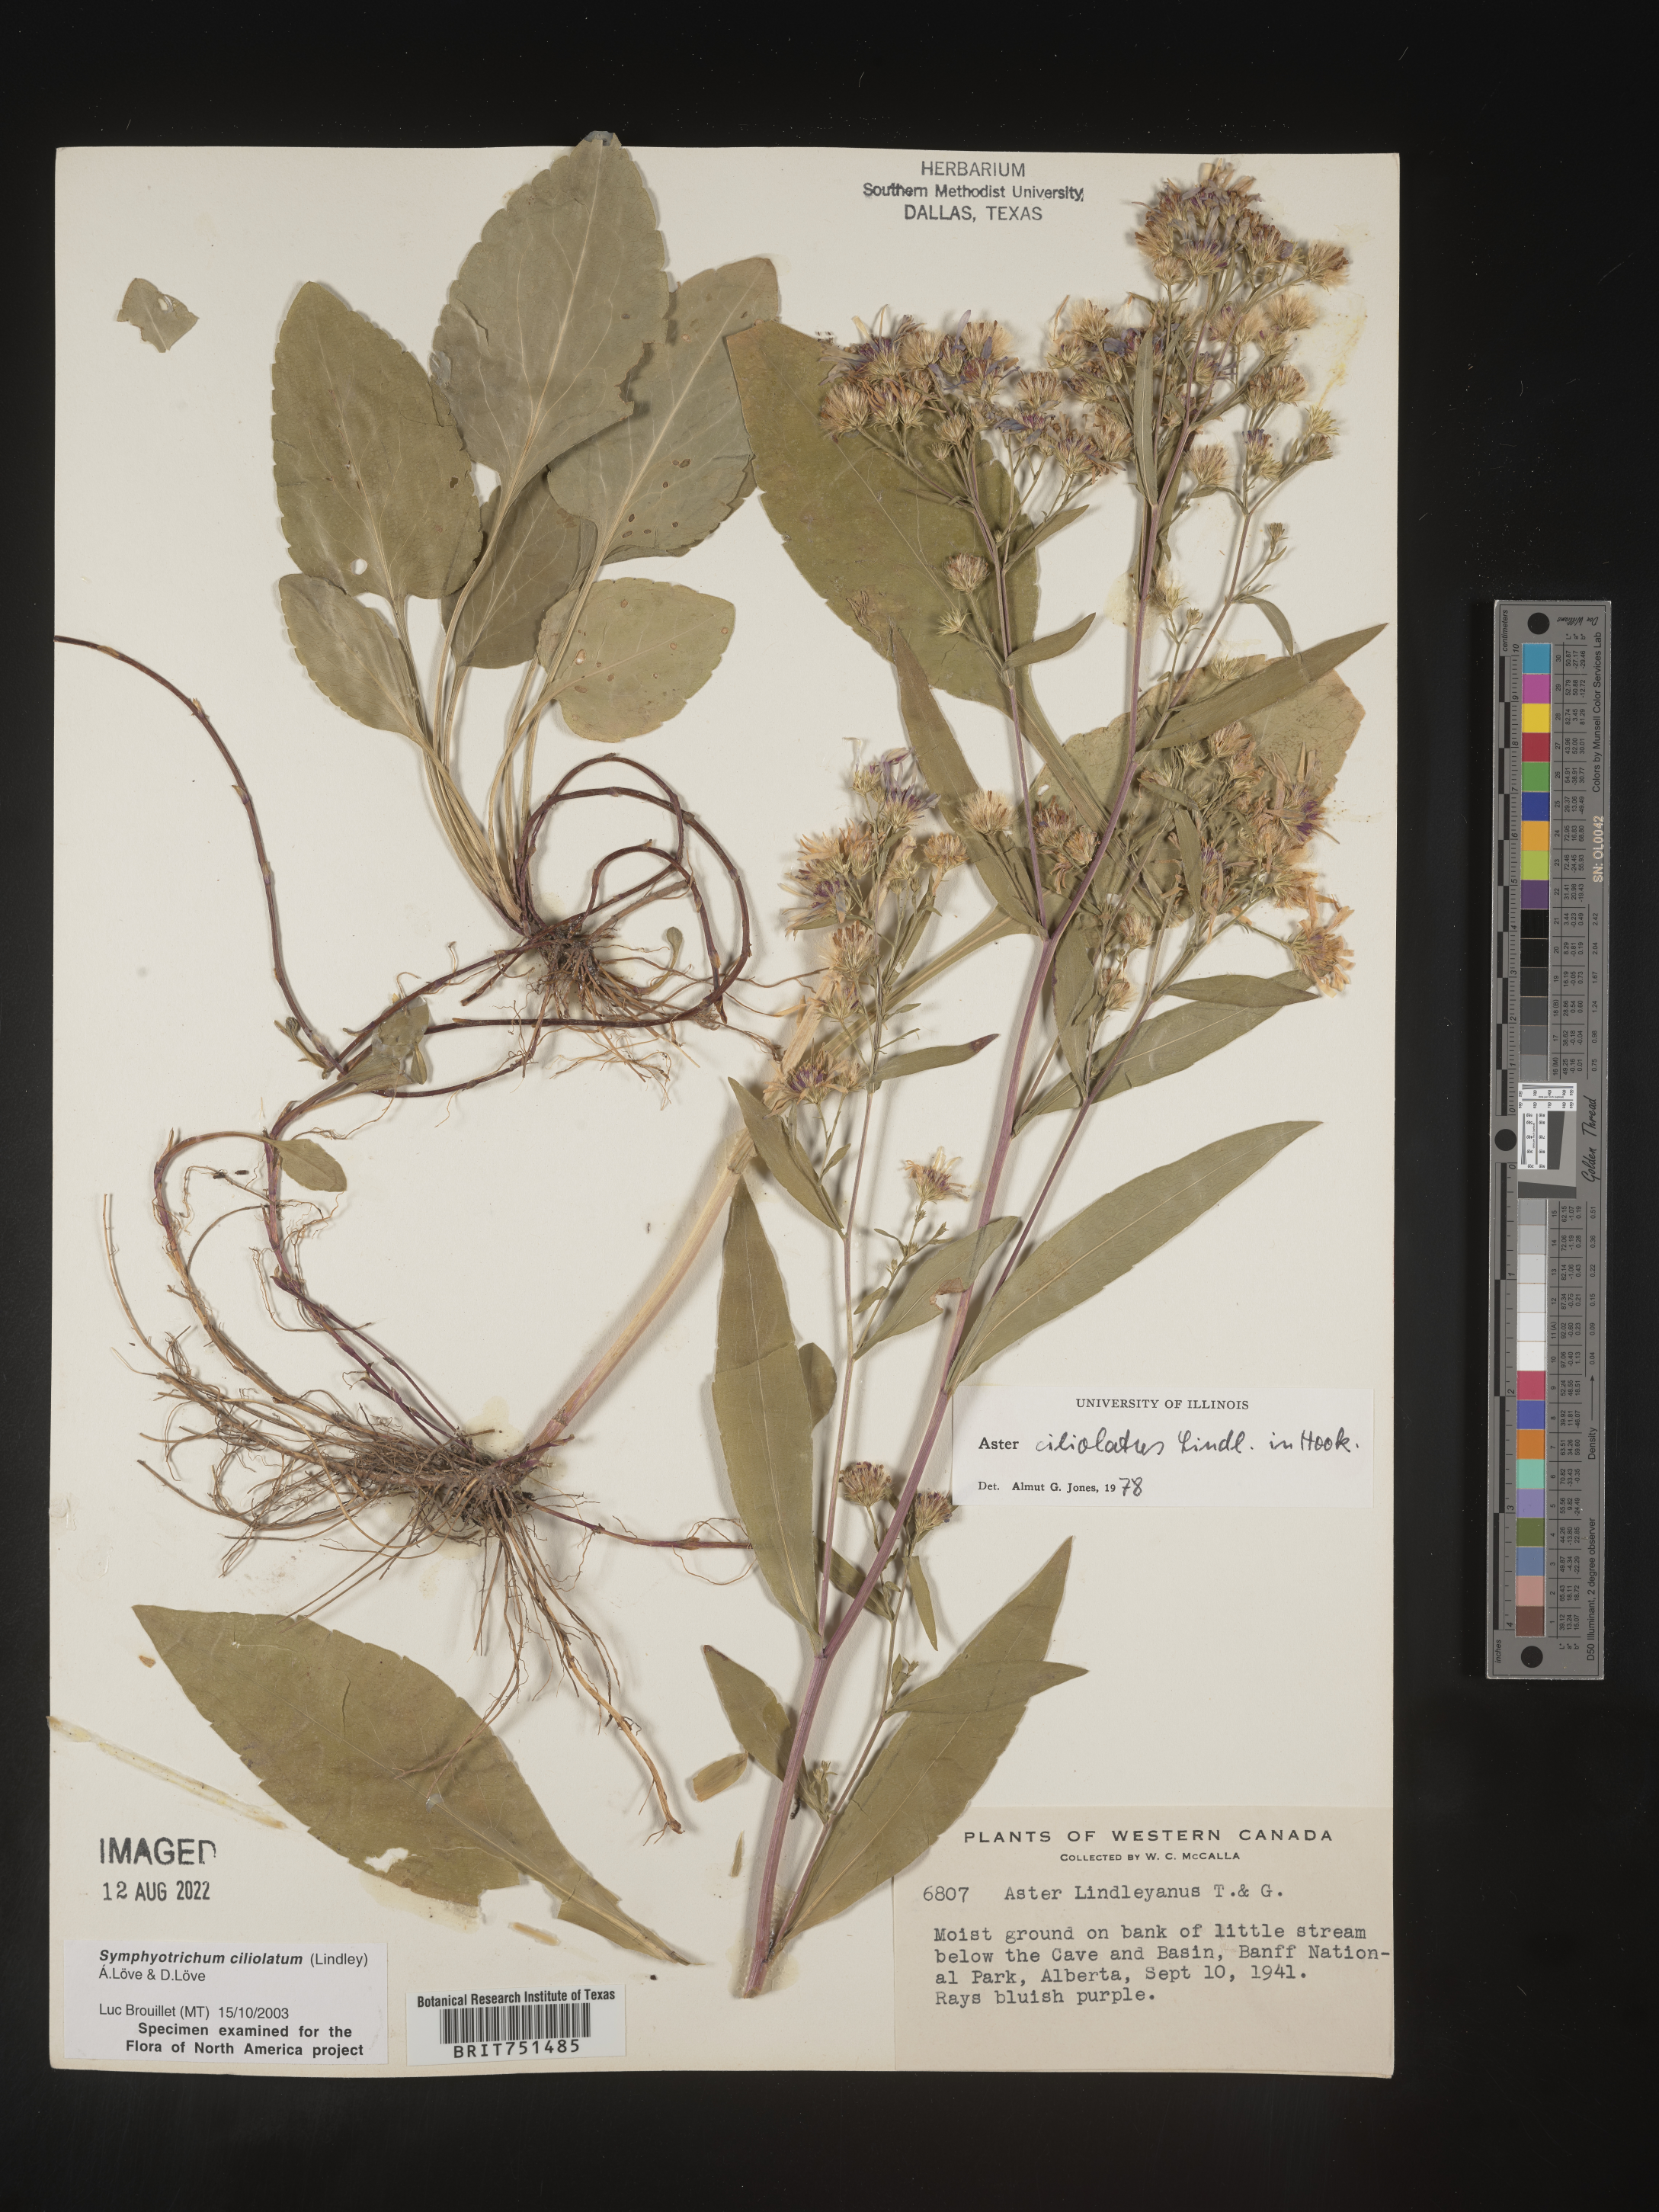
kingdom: Plantae
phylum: Tracheophyta
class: Magnoliopsida
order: Asterales
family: Asteraceae
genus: Symphyotrichum
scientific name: Symphyotrichum ciliolatum
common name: Fringed blue aster
